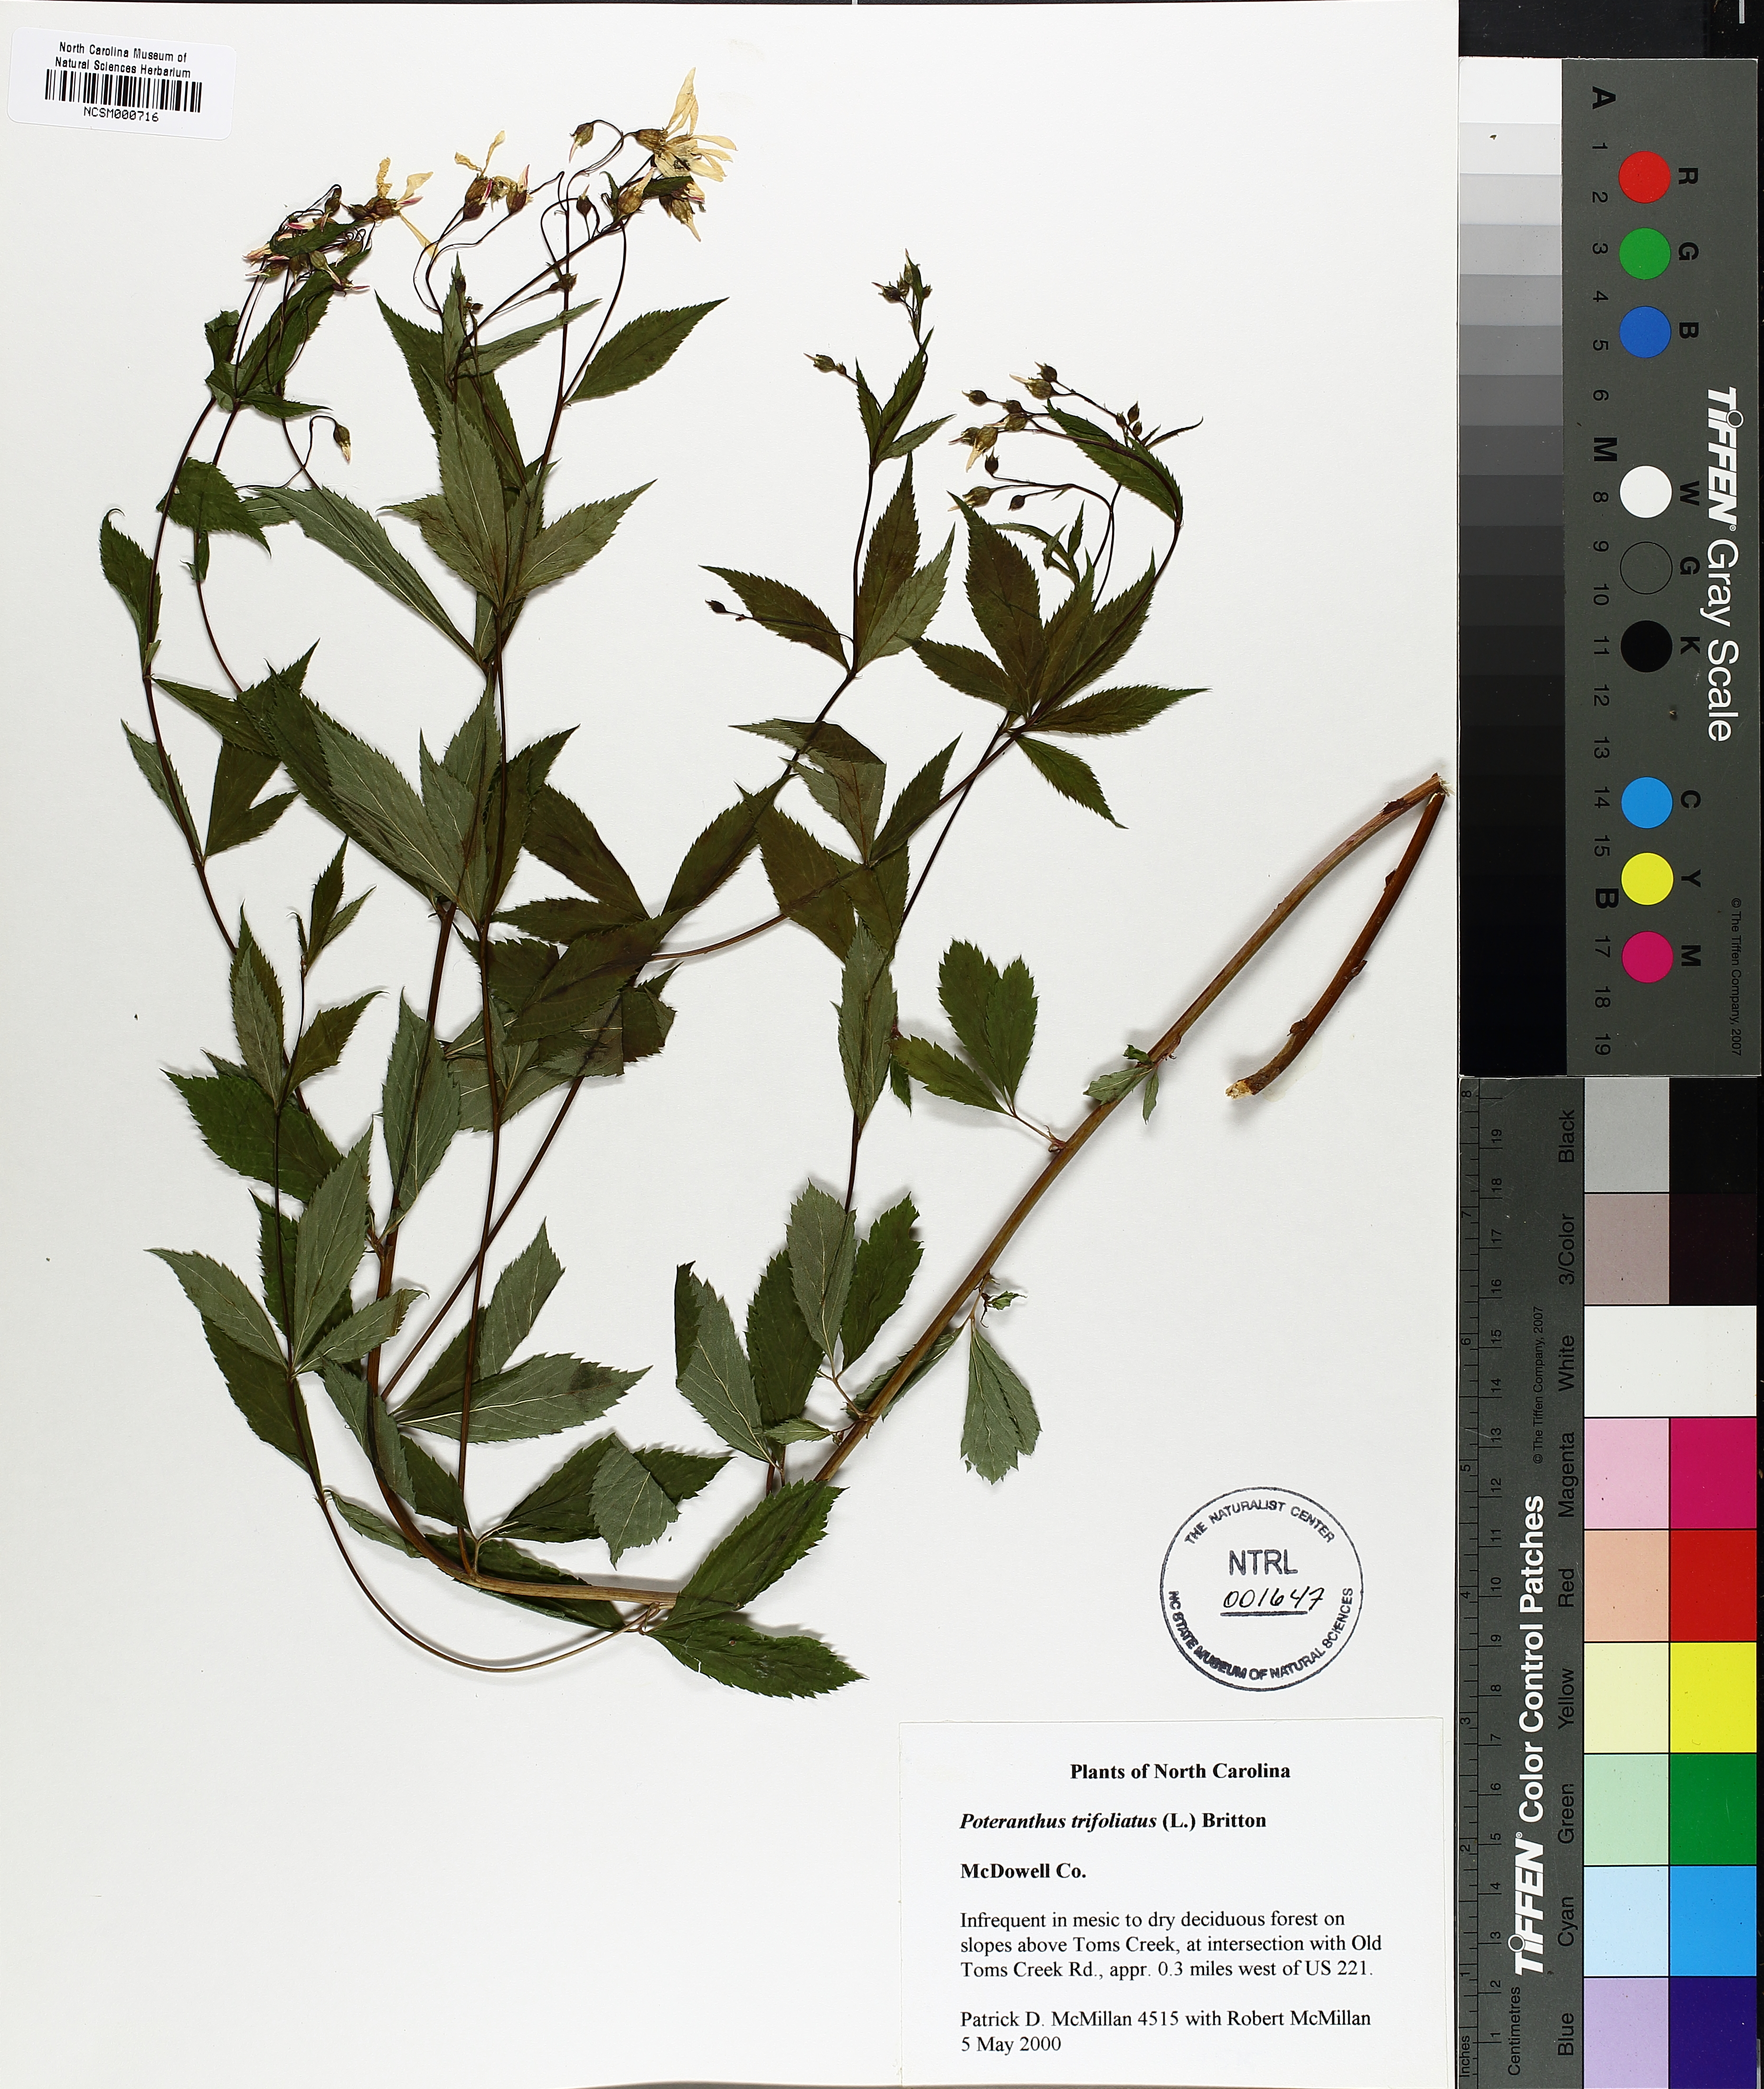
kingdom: Plantae
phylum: Tracheophyta
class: Magnoliopsida
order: Rosales
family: Rosaceae
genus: Gillenia
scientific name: Gillenia trifoliata
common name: Bowman's-root
